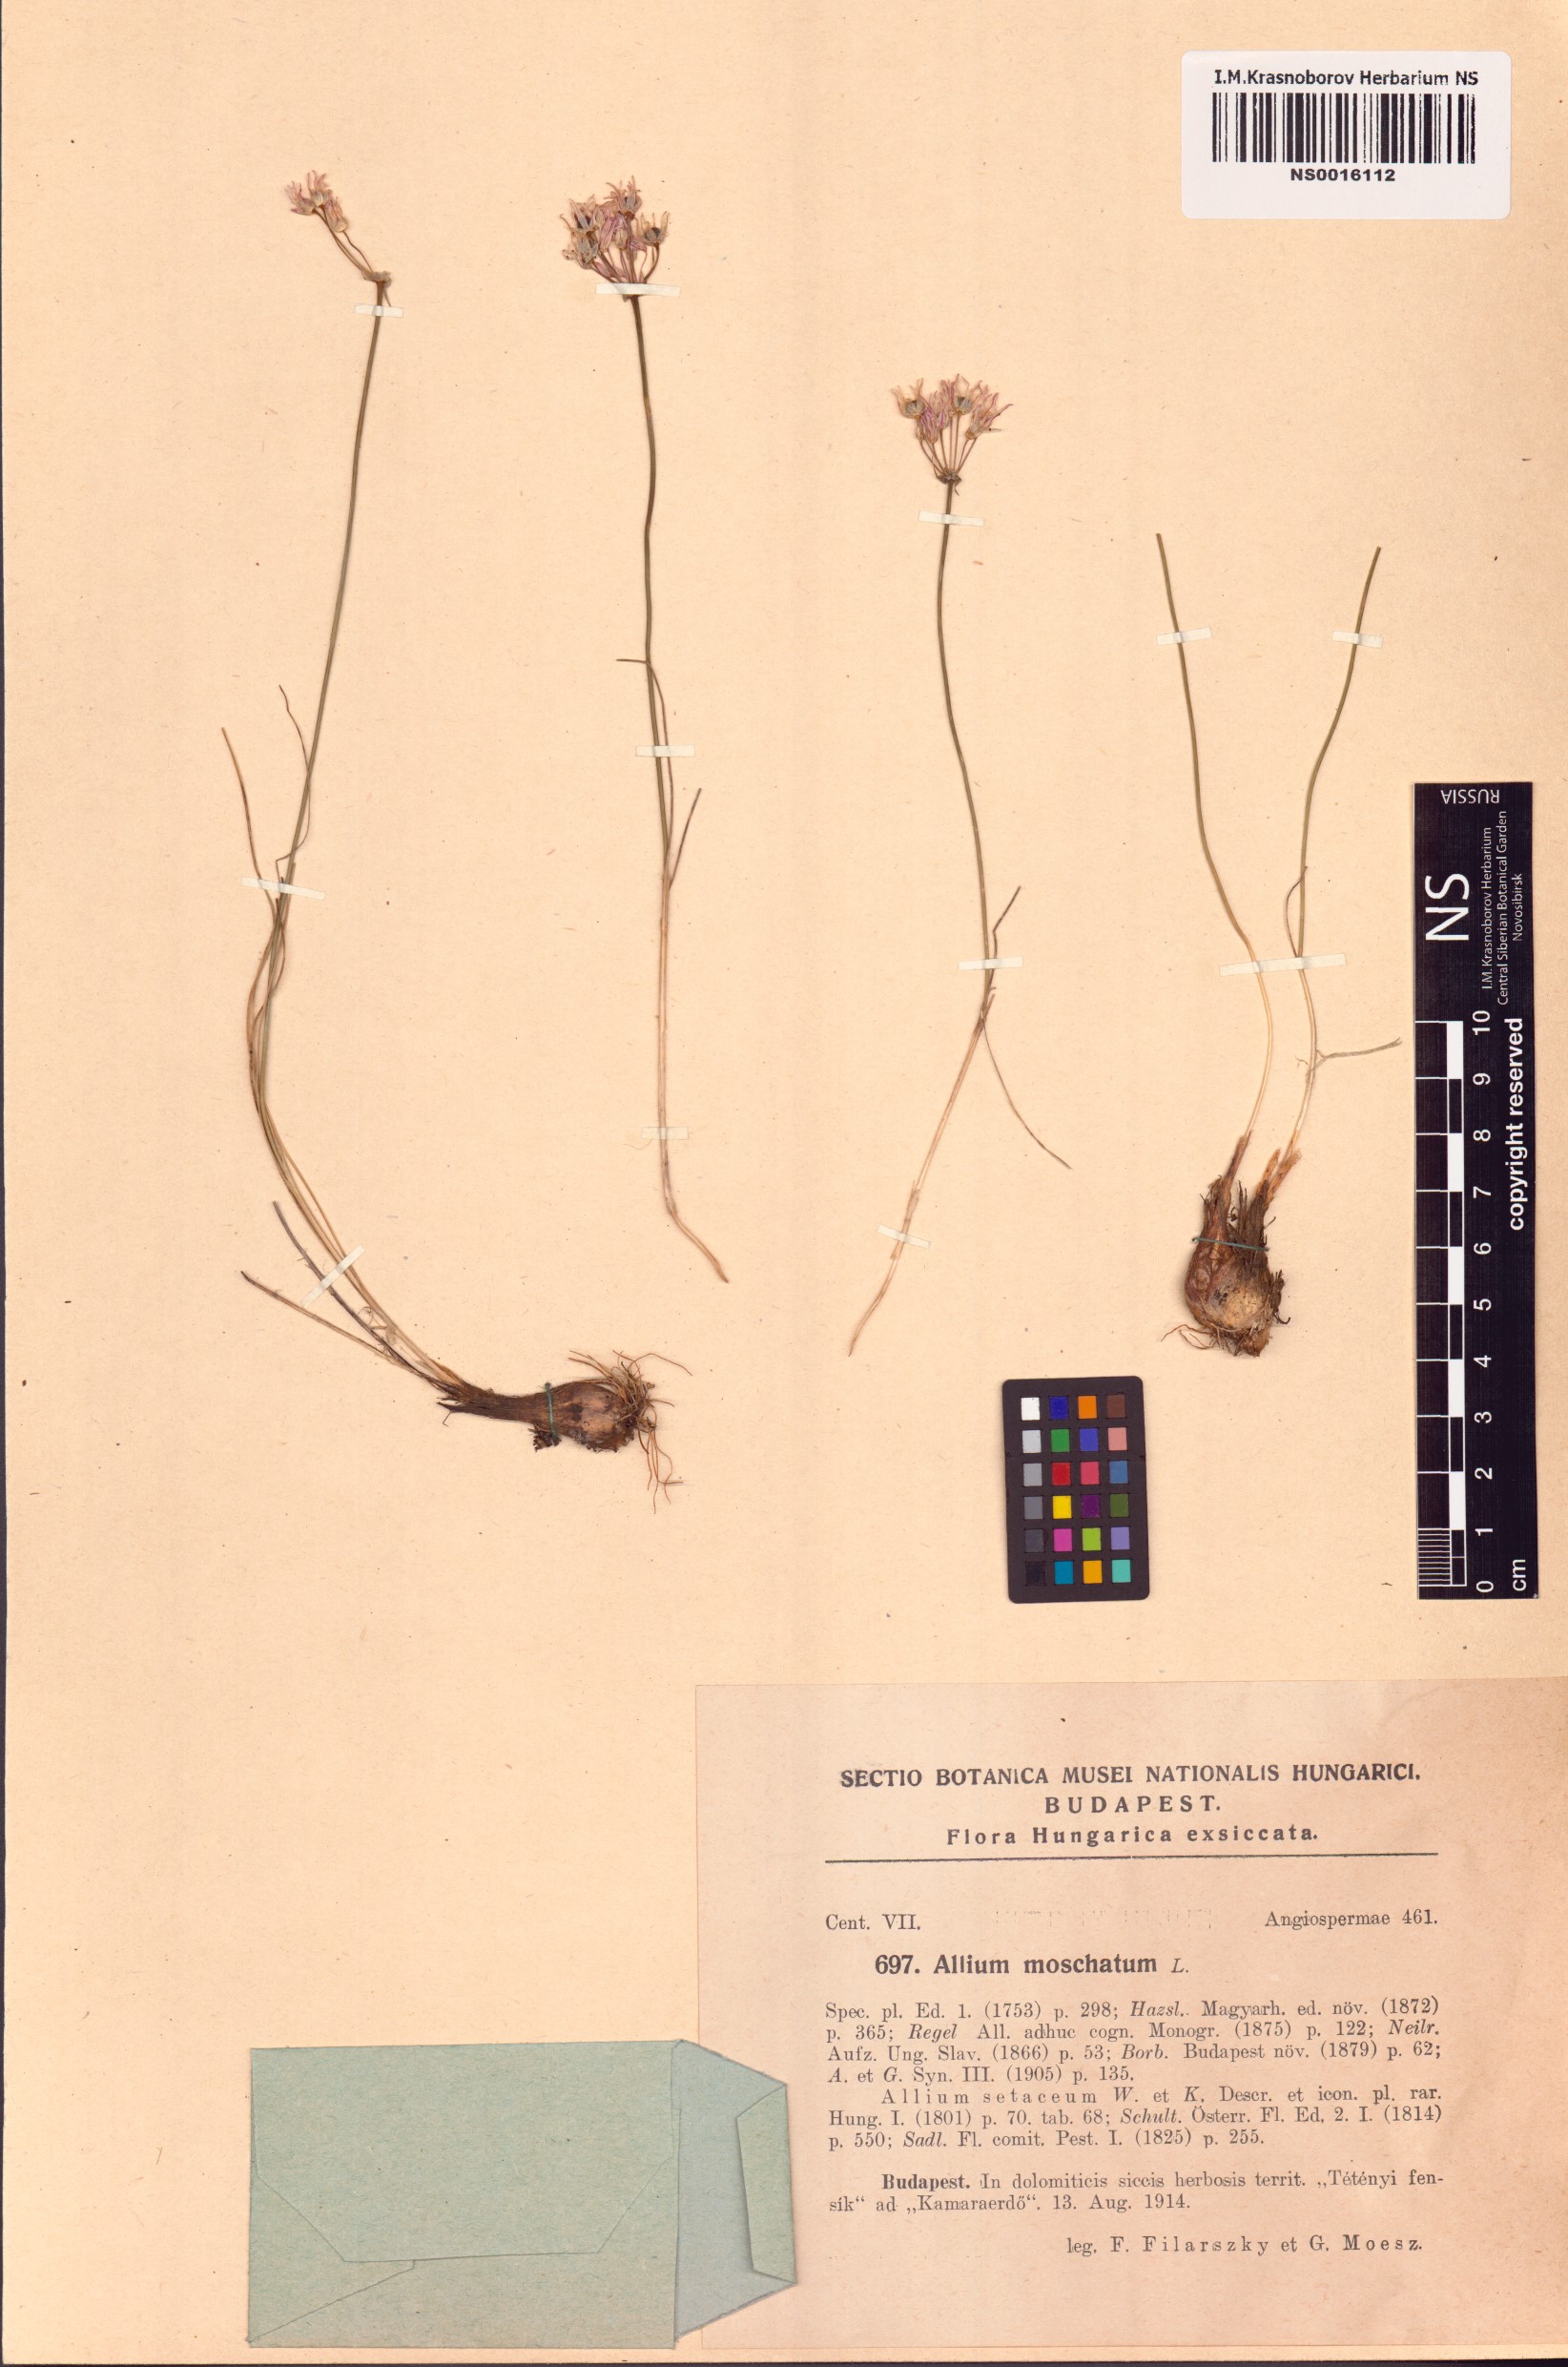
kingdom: Plantae
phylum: Tracheophyta
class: Liliopsida
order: Asparagales
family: Amaryllidaceae
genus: Allium
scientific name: Allium moschatum
